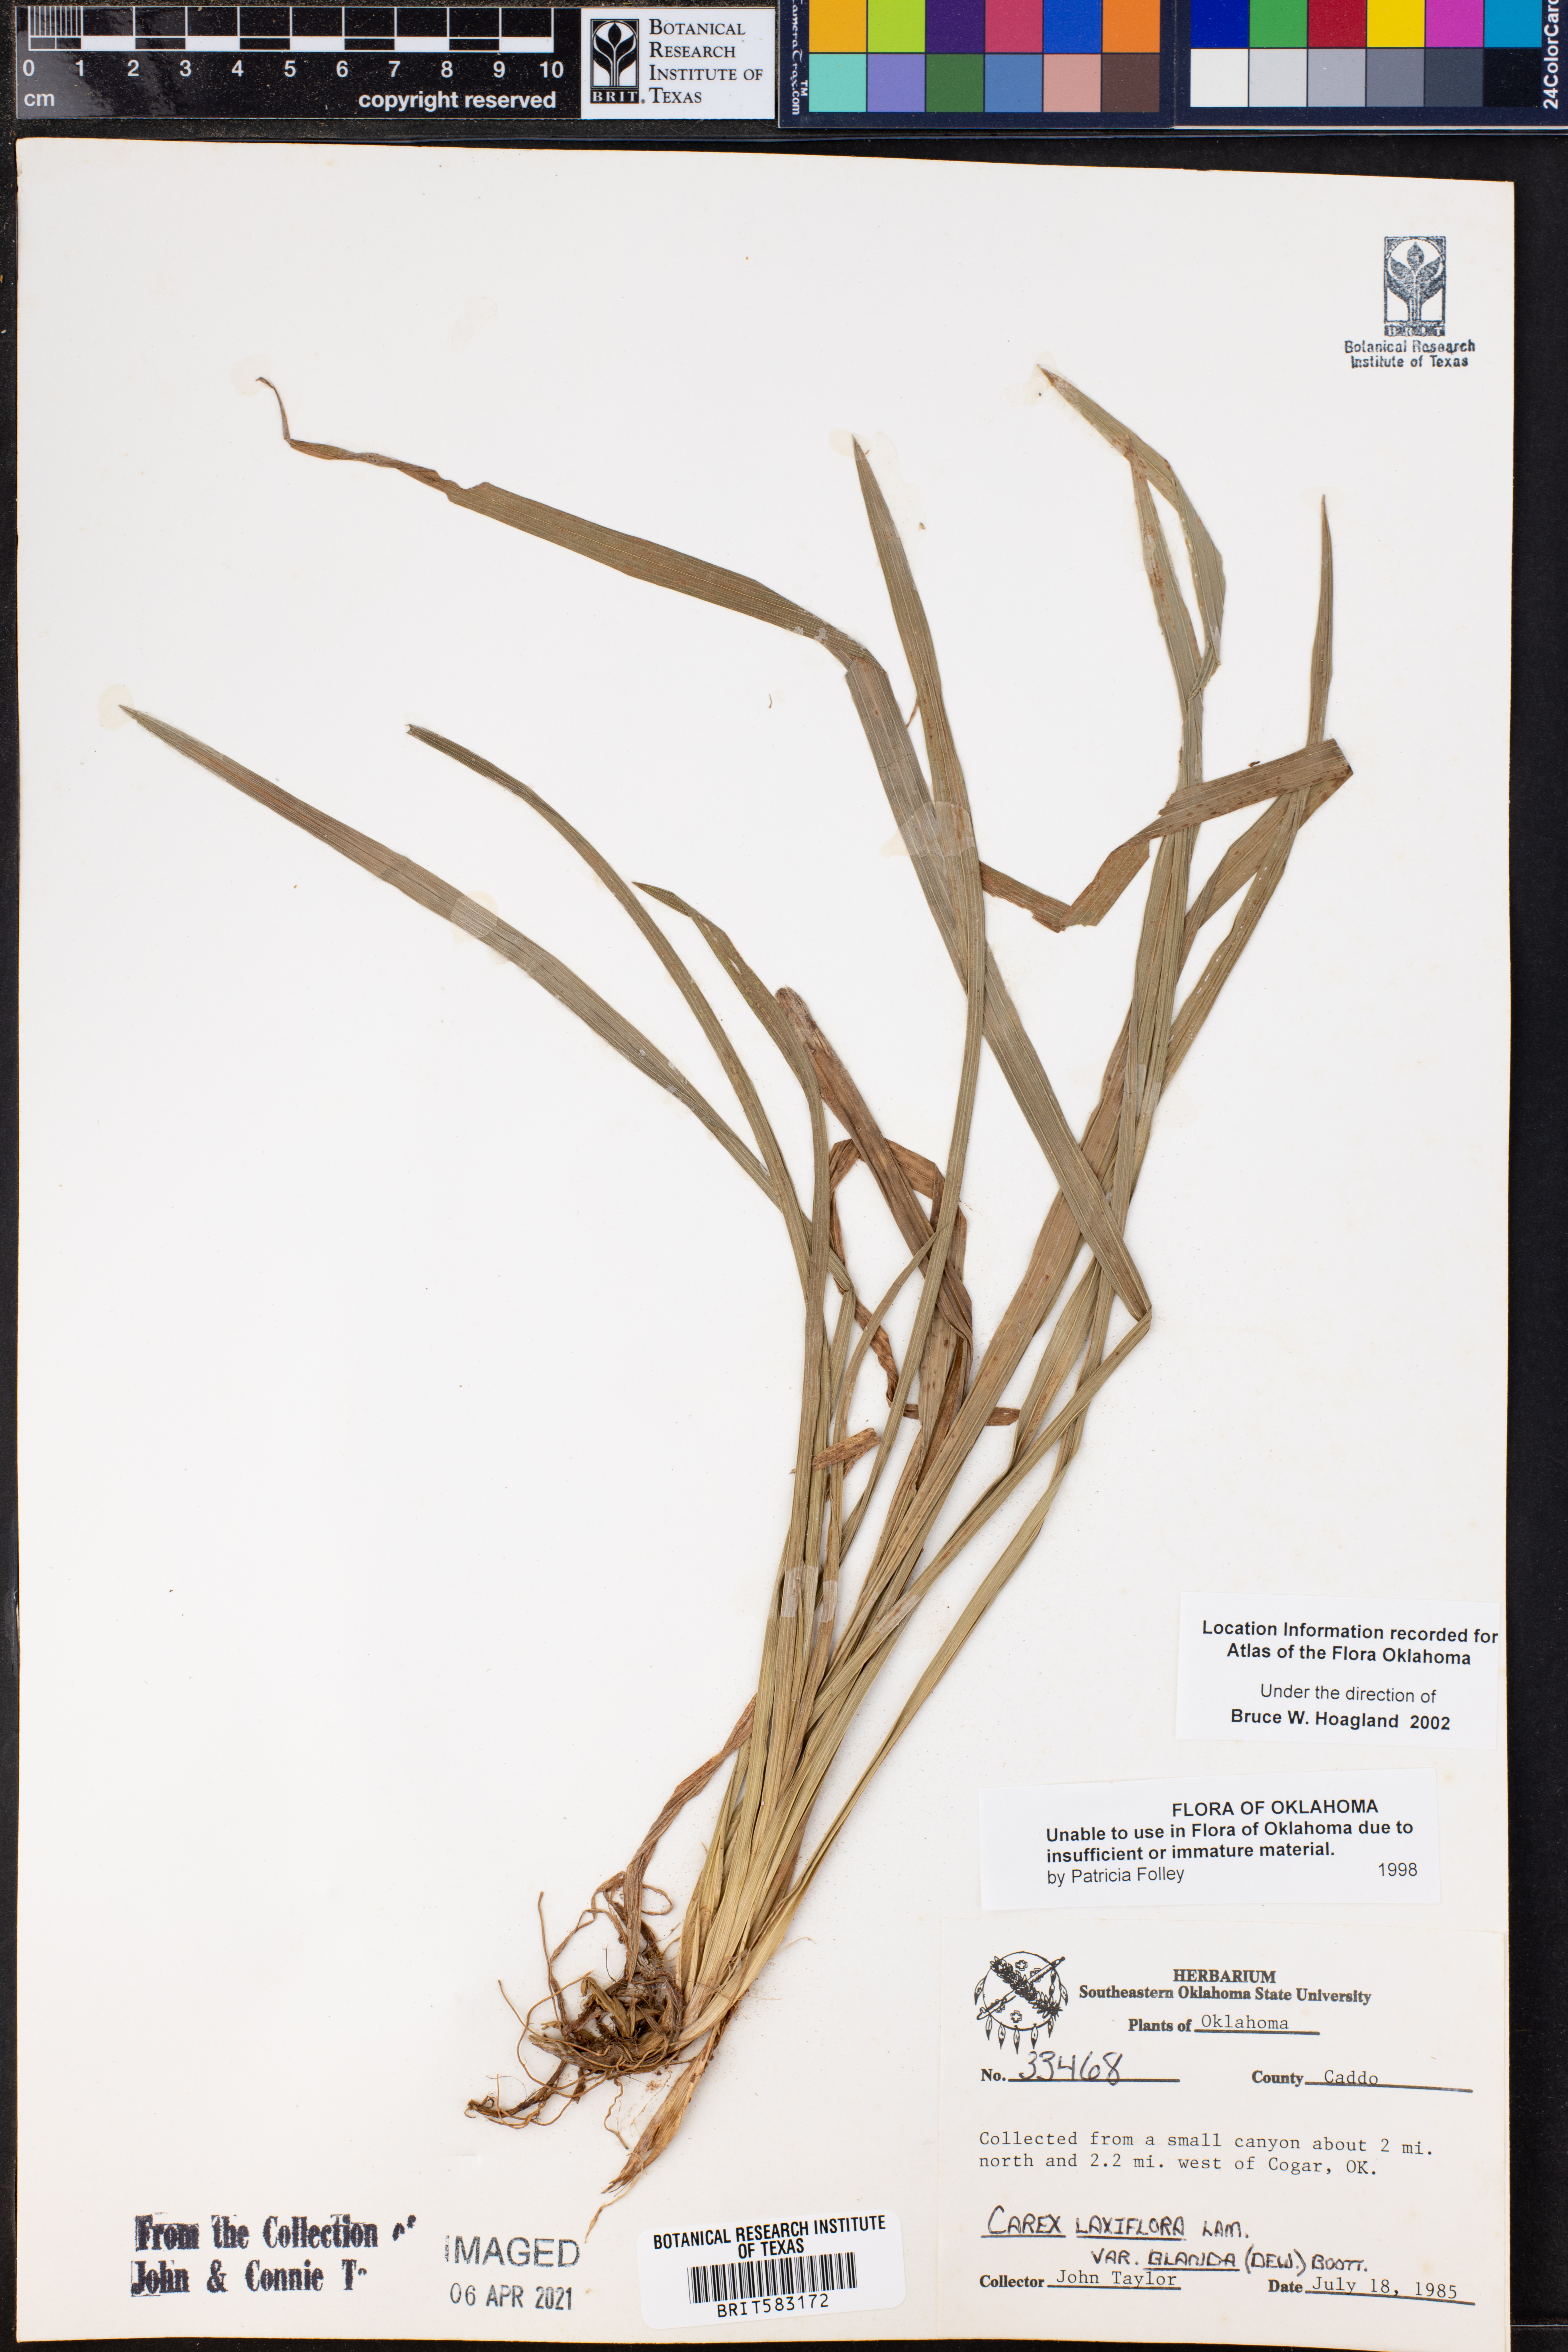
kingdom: Plantae
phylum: Tracheophyta
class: Liliopsida
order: Poales
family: Cyperaceae
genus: Carex
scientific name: Carex blanda
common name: Bland sedge
